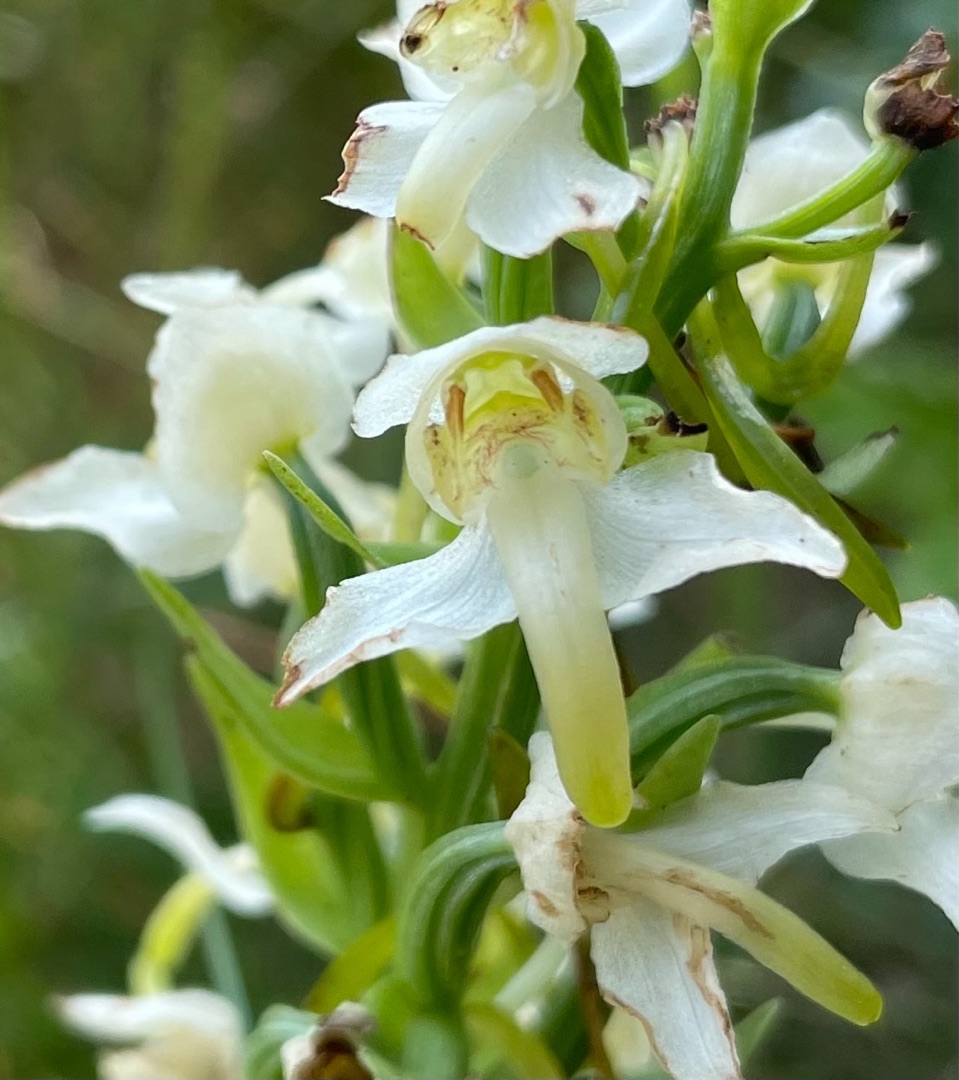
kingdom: Plantae
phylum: Tracheophyta
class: Liliopsida
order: Asparagales
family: Orchidaceae
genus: Platanthera
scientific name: Platanthera chlorantha
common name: Skov-gøgelilje
